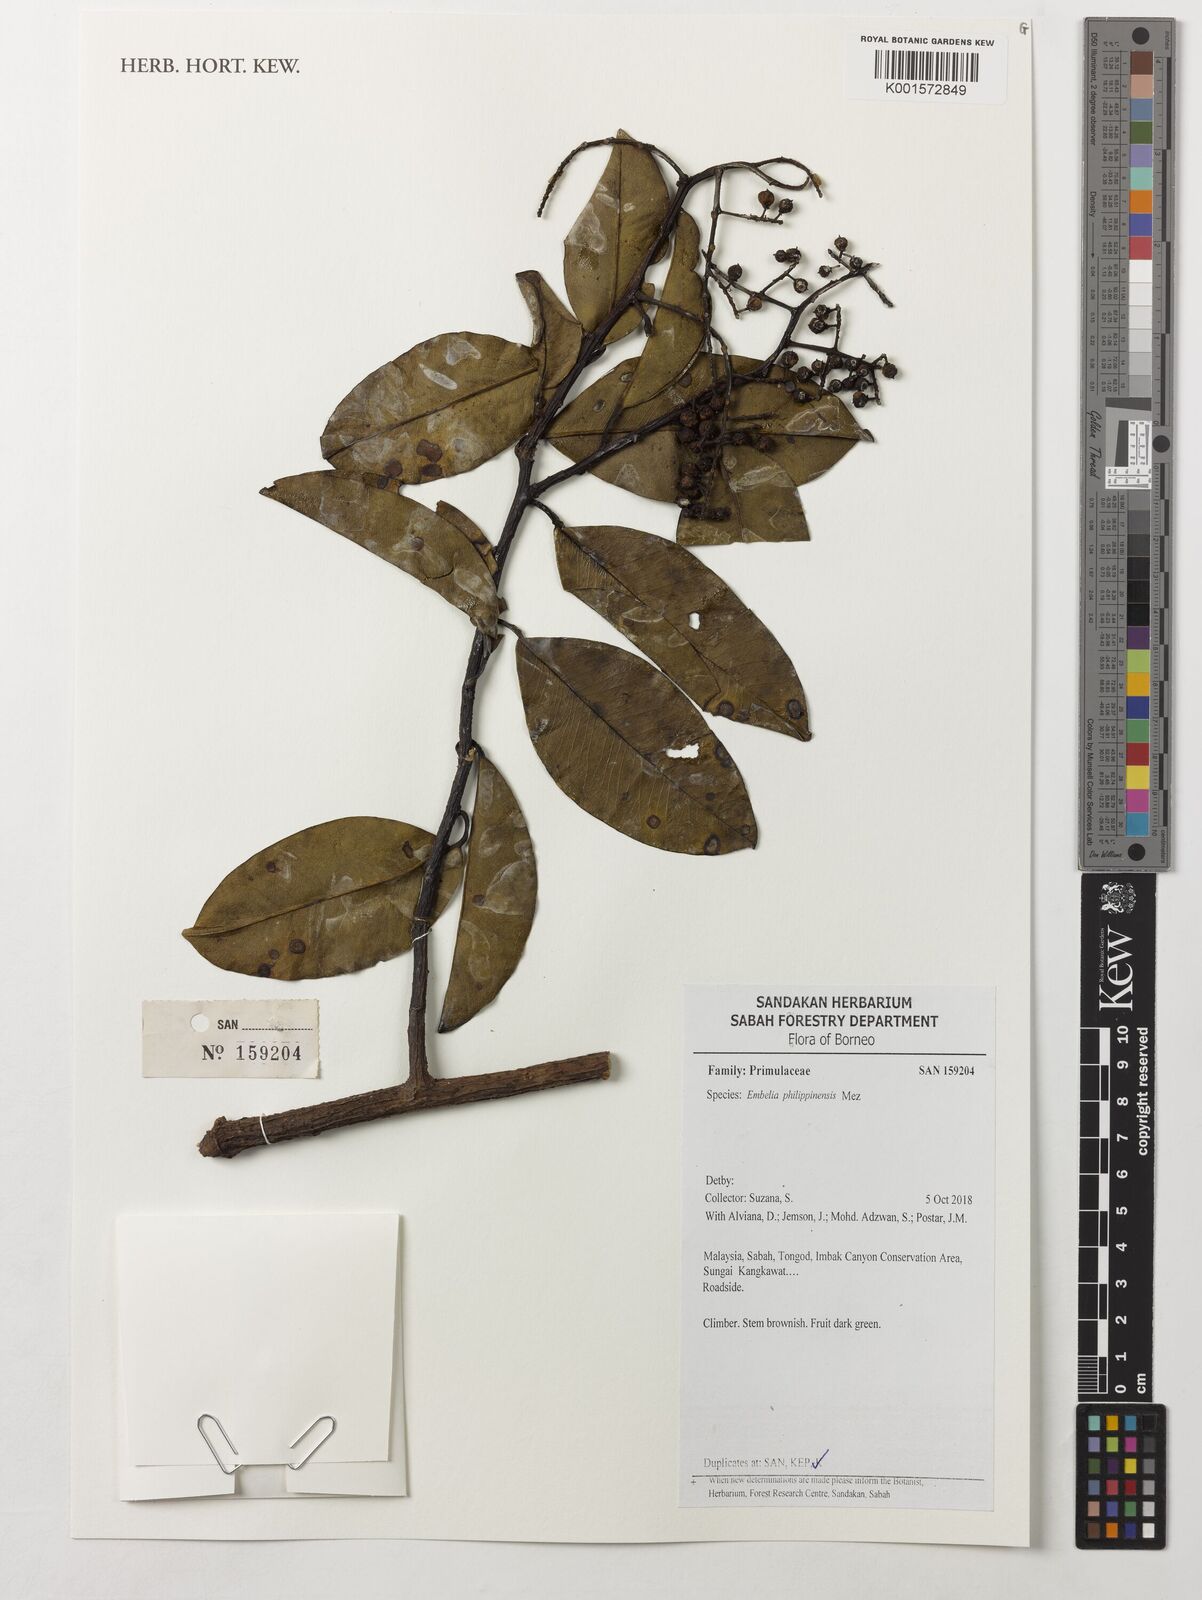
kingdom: Plantae
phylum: Tracheophyta
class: Magnoliopsida
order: Ericales
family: Primulaceae
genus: Embelia
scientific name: Embelia philippinensis
